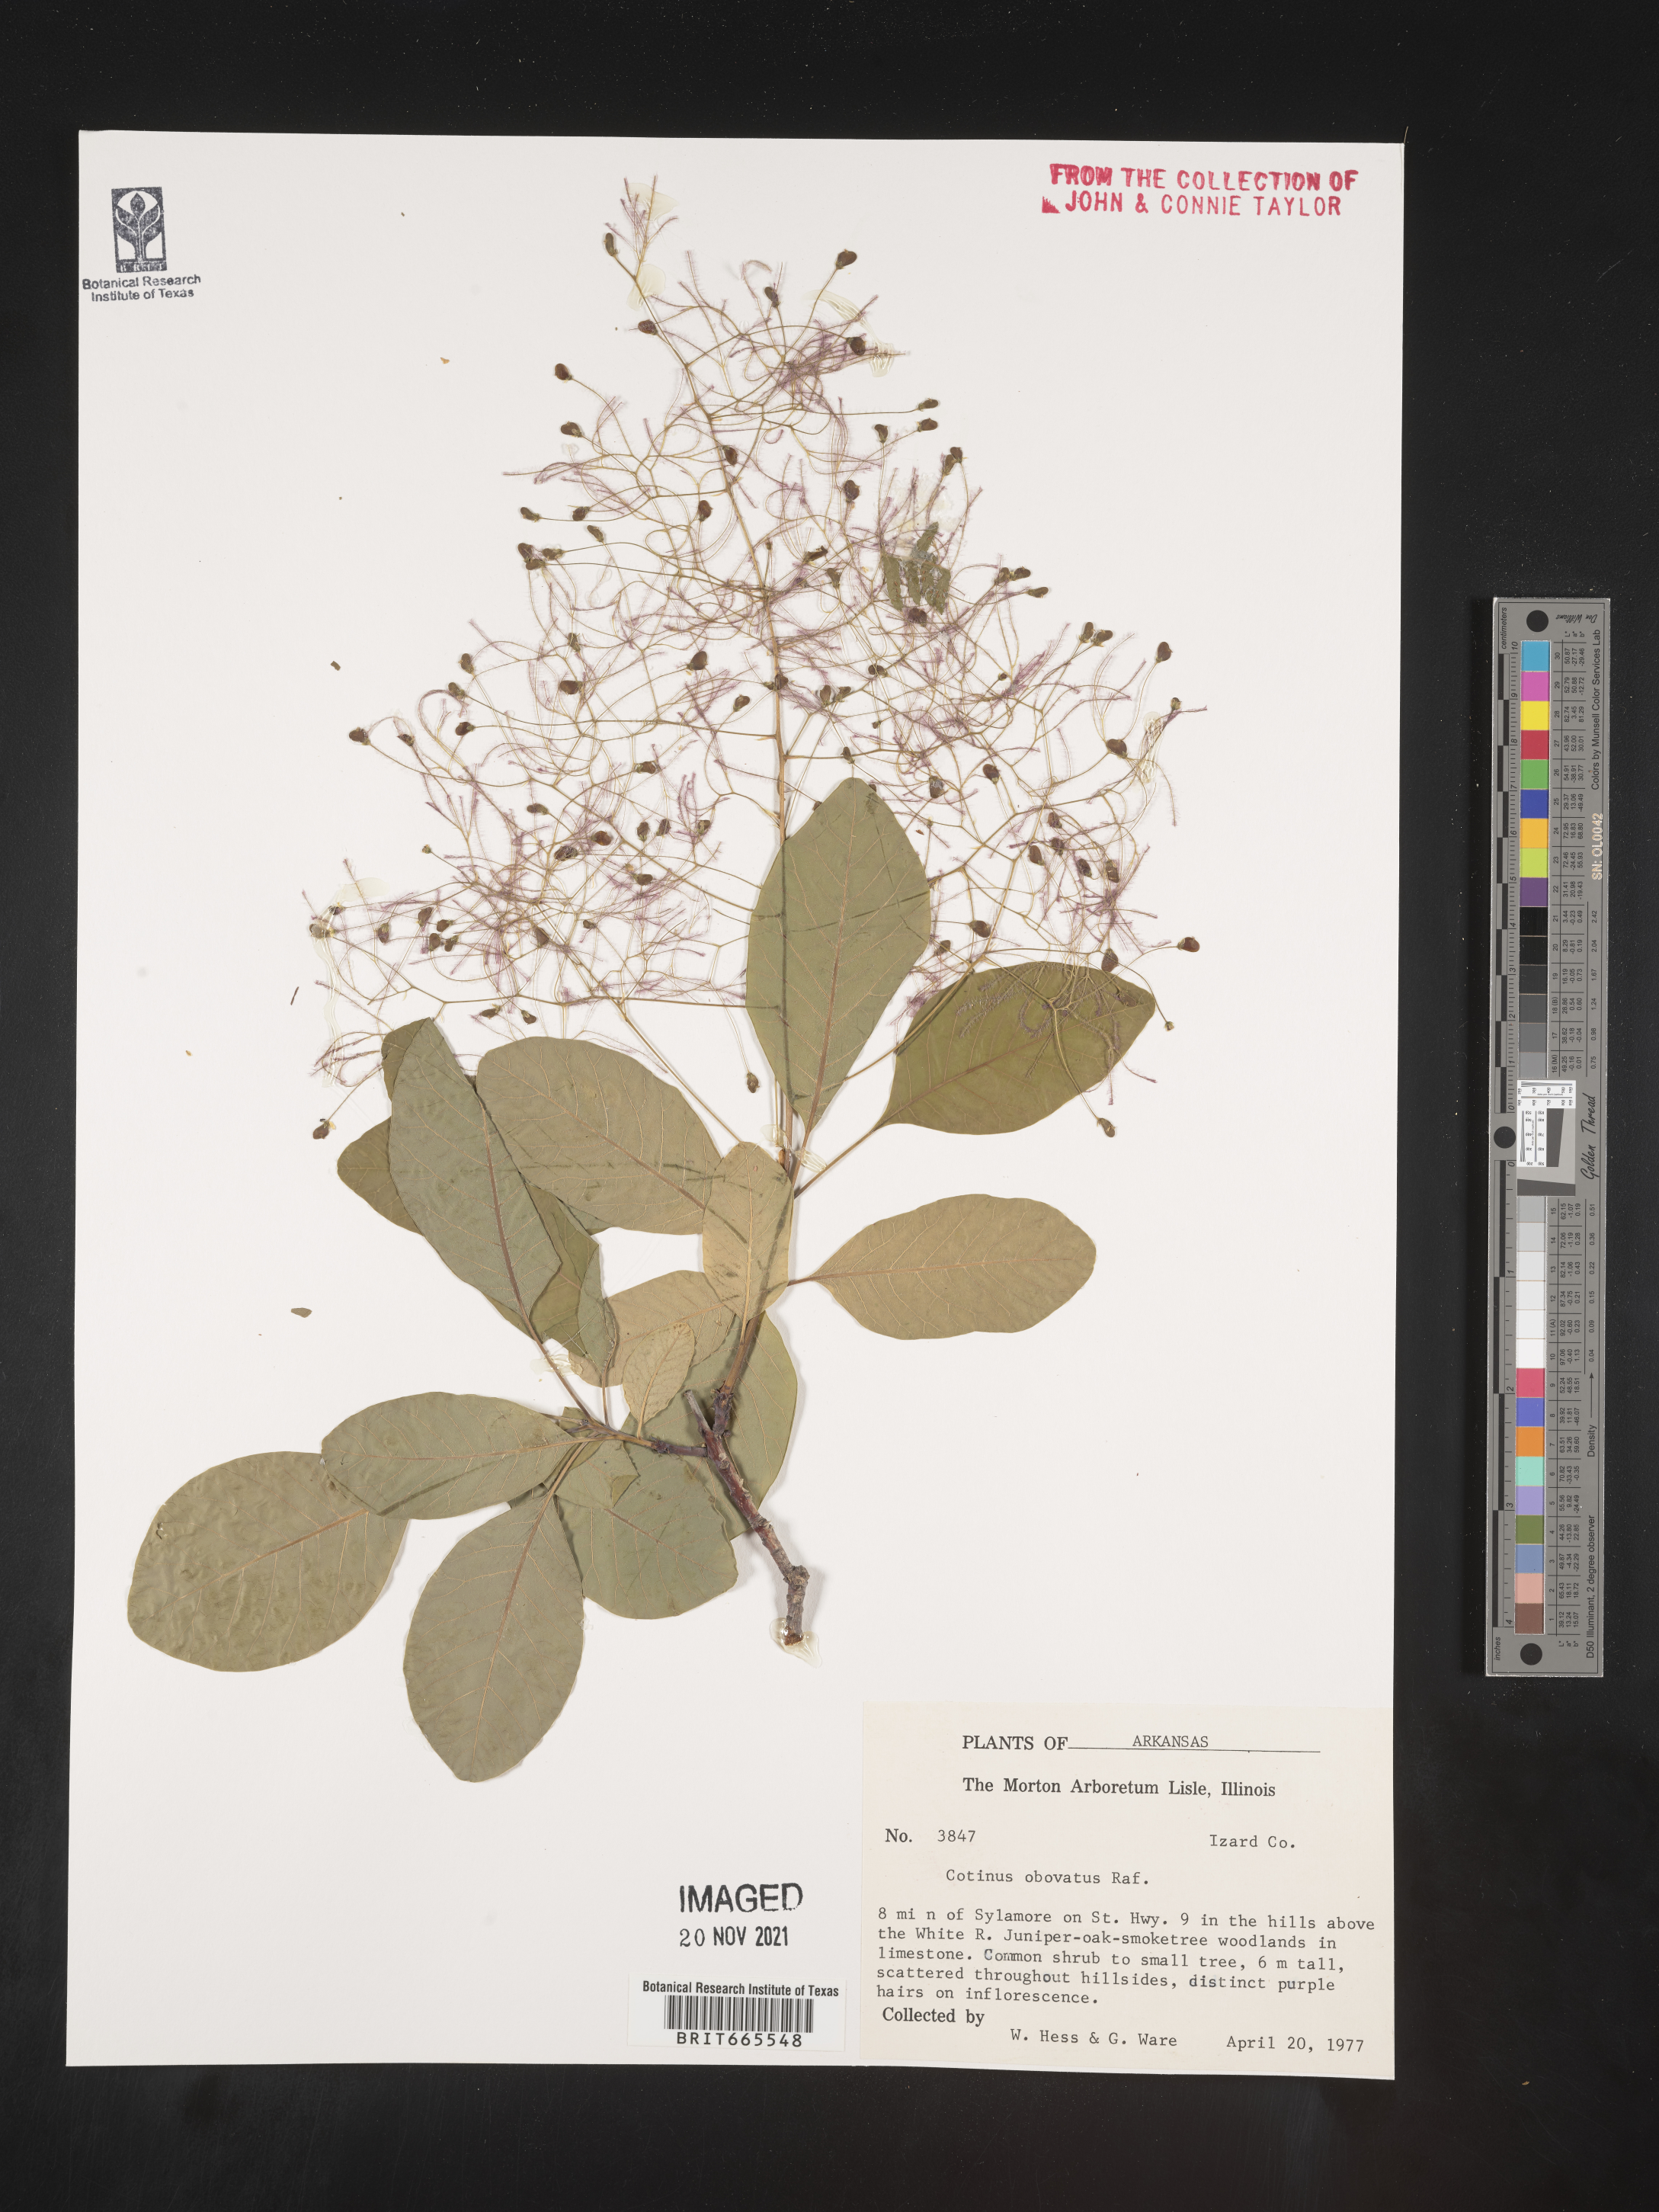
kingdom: Plantae
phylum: Tracheophyta
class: Magnoliopsida
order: Sapindales
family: Anacardiaceae
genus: Cotinus
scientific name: Cotinus obovatus
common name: Chittamwood
